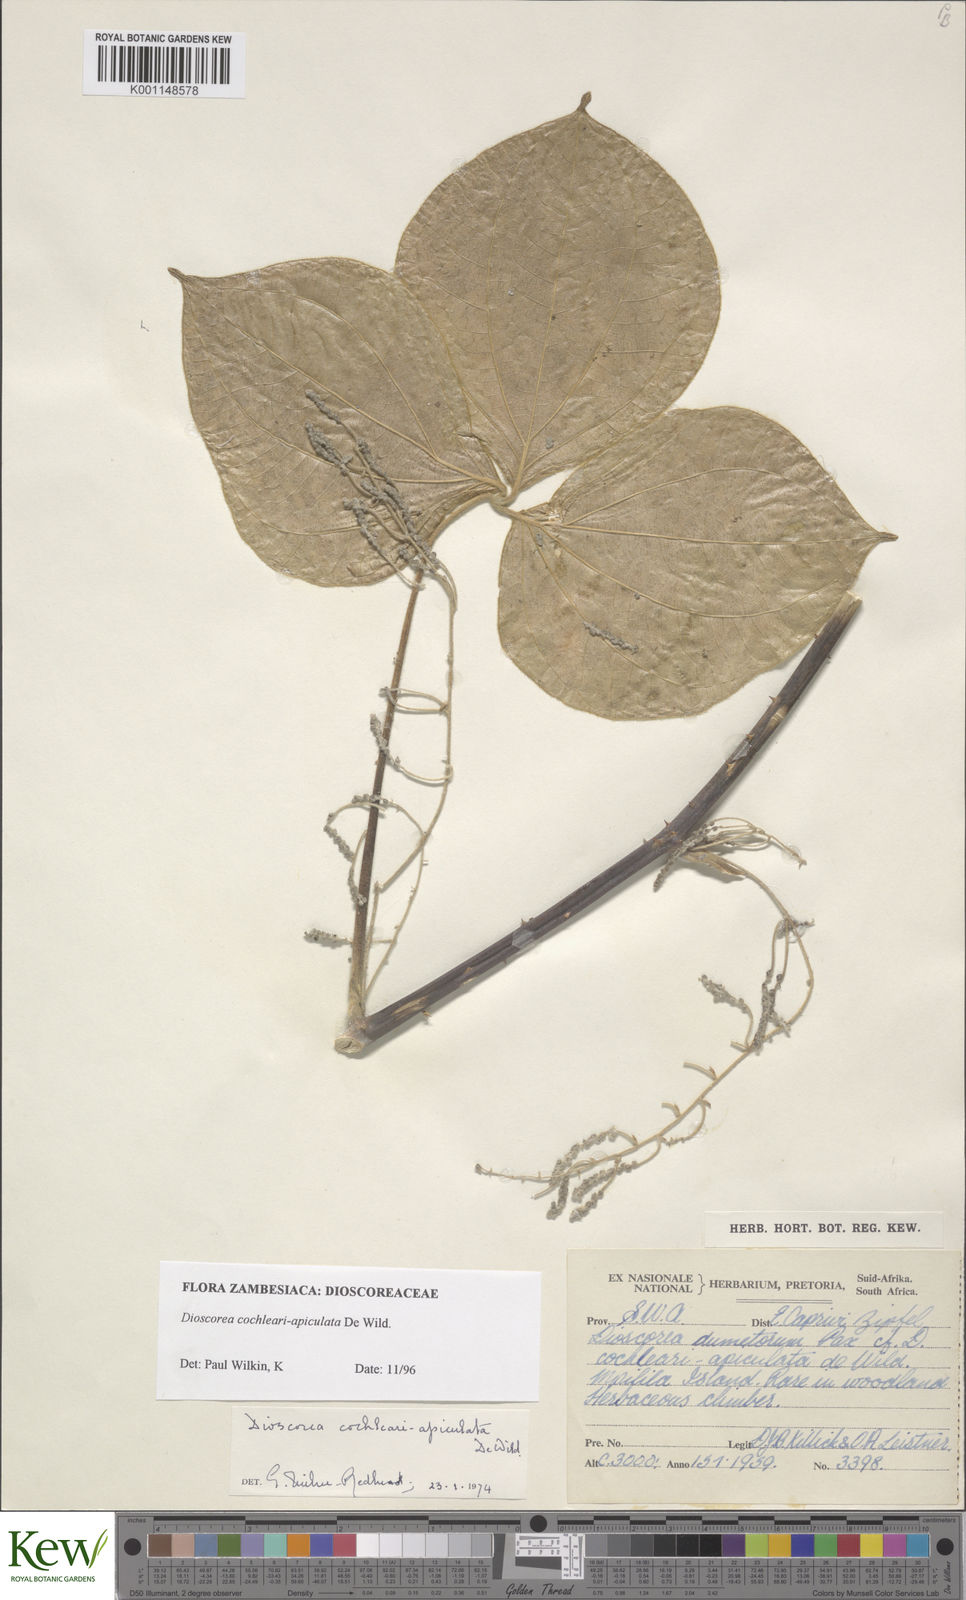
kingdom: Plantae
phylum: Tracheophyta
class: Liliopsida
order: Dioscoreales
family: Dioscoreaceae
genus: Dioscorea
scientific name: Dioscorea cochleariapiculata
